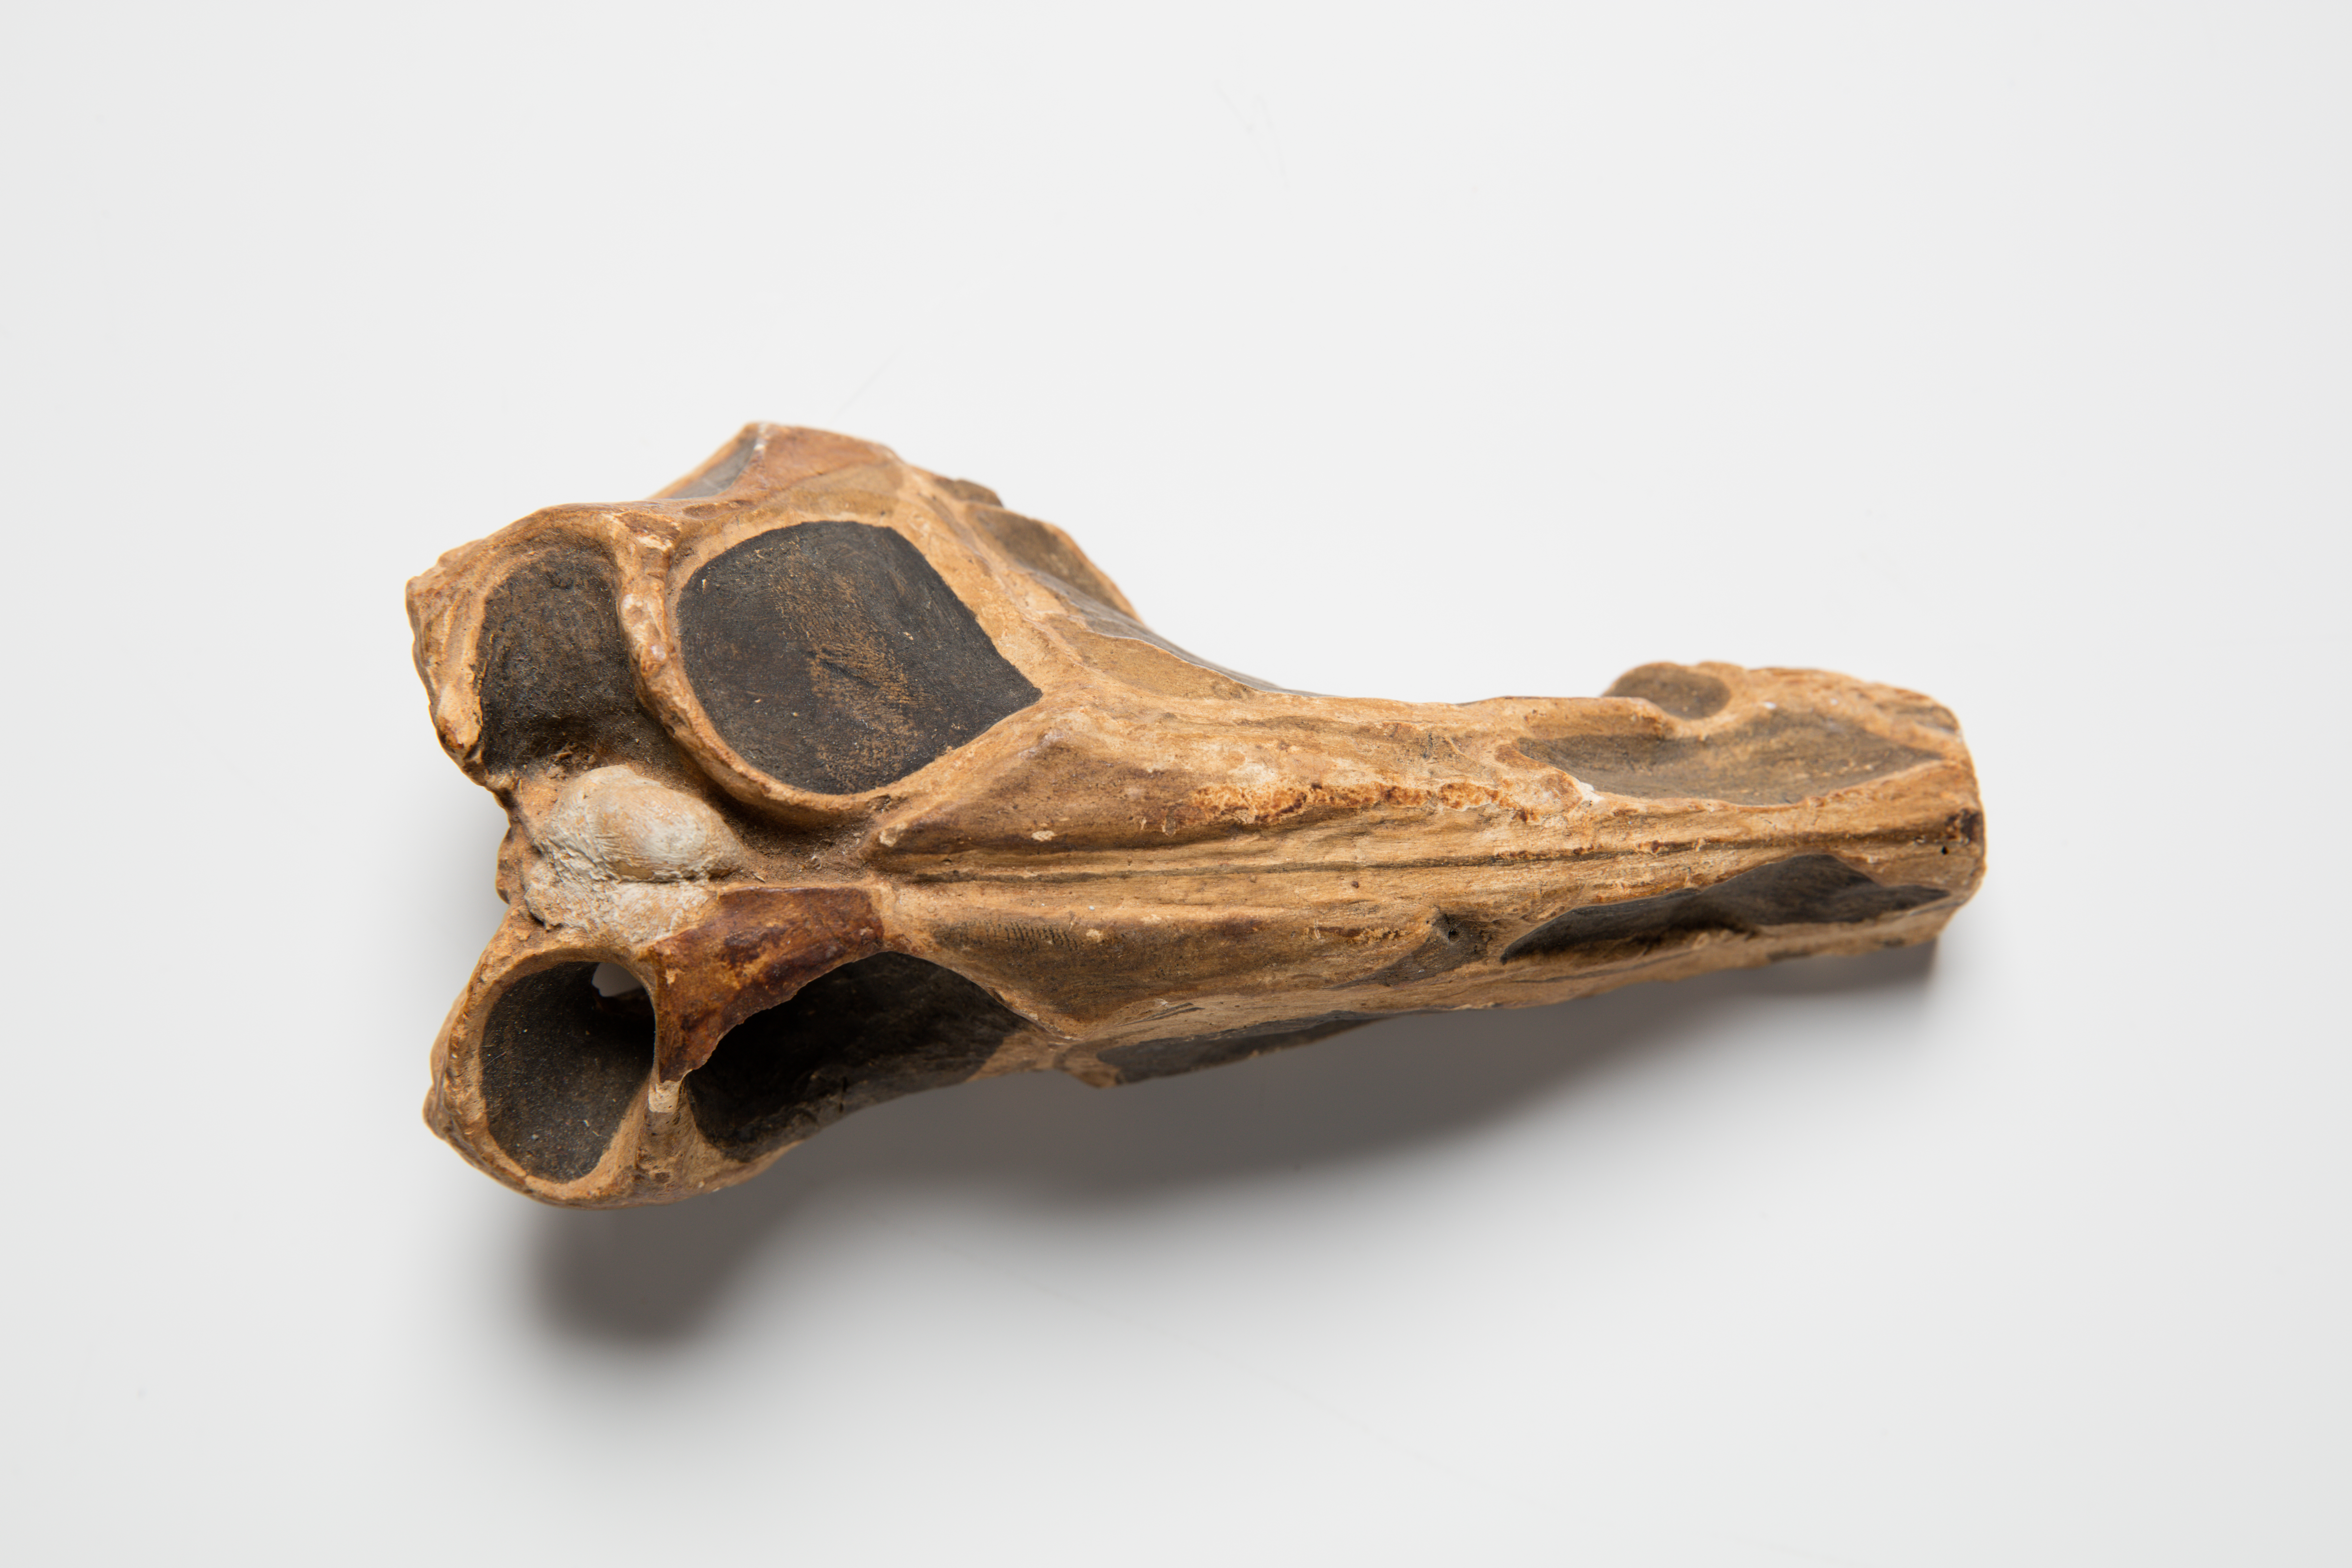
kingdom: Animalia
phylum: Chordata
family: Rhamphorhynchidae
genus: Parapsicephalus
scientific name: Parapsicephalus Scaphognathus purdoni
